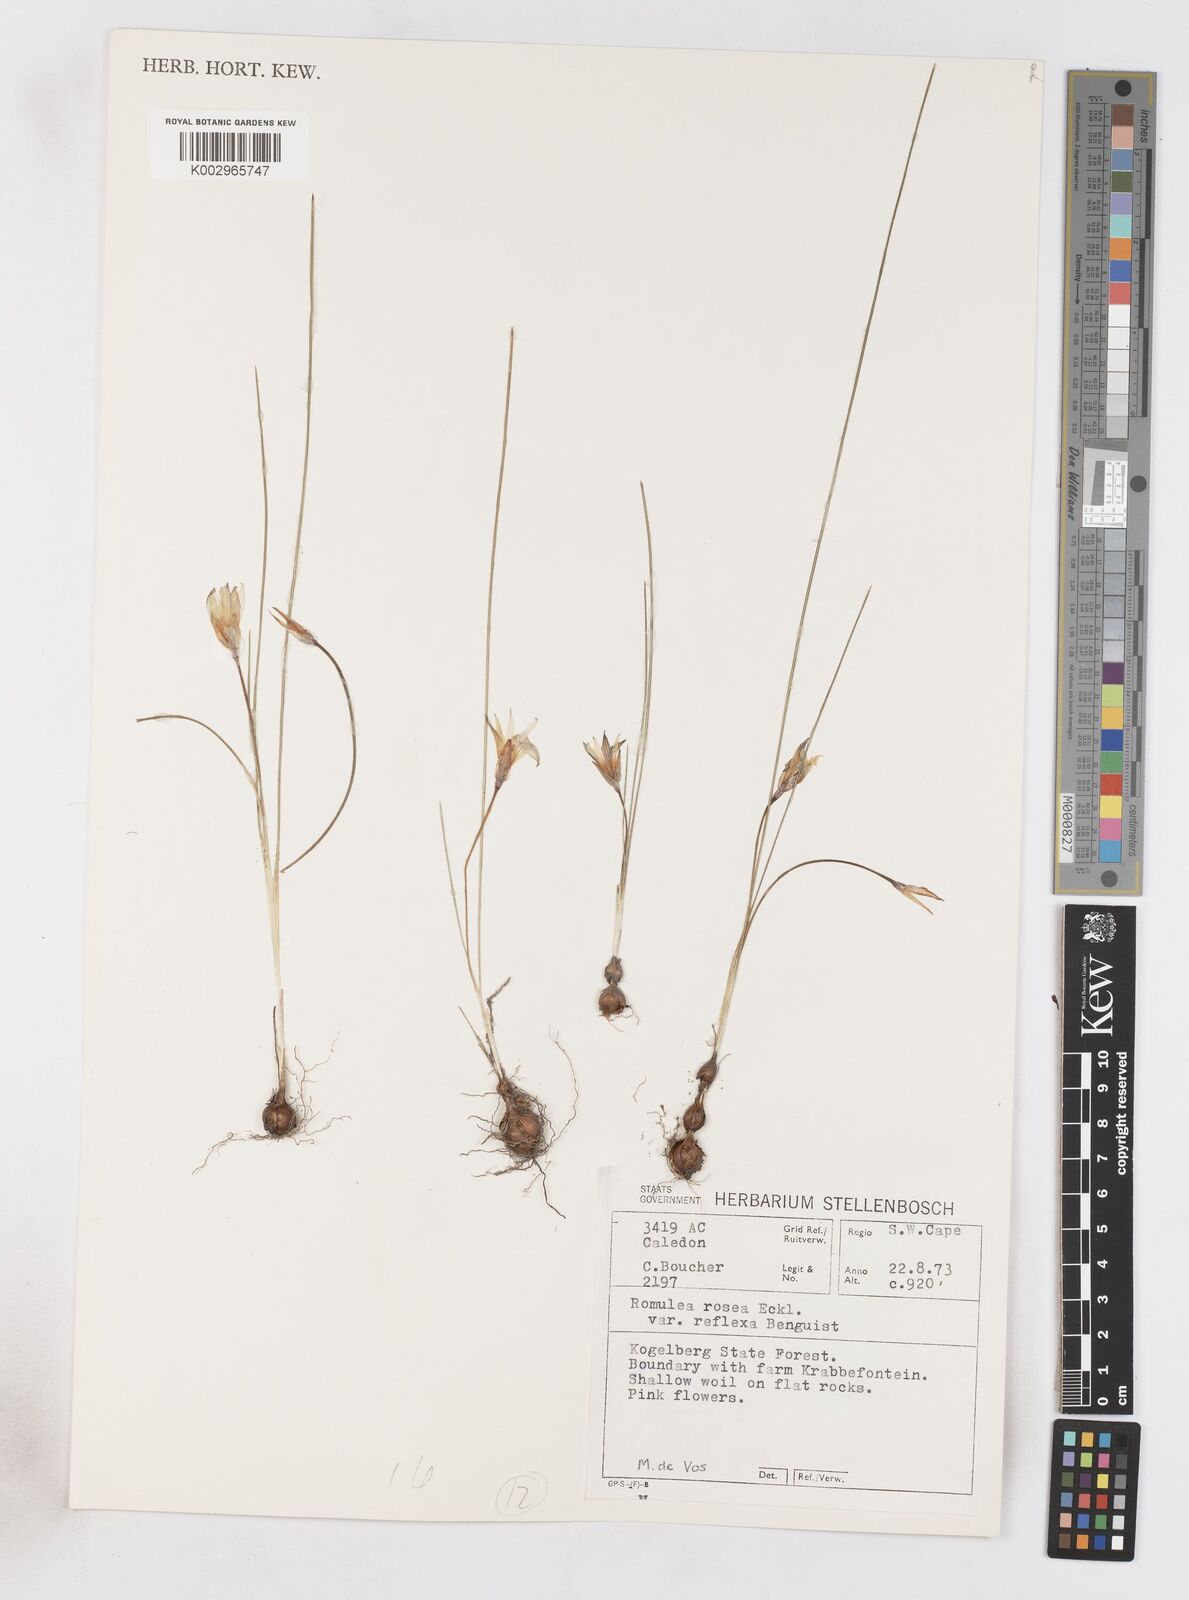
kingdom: Plantae
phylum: Tracheophyta
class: Liliopsida
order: Asparagales
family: Iridaceae
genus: Romulea
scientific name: Romulea rosea
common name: Oniongrass
